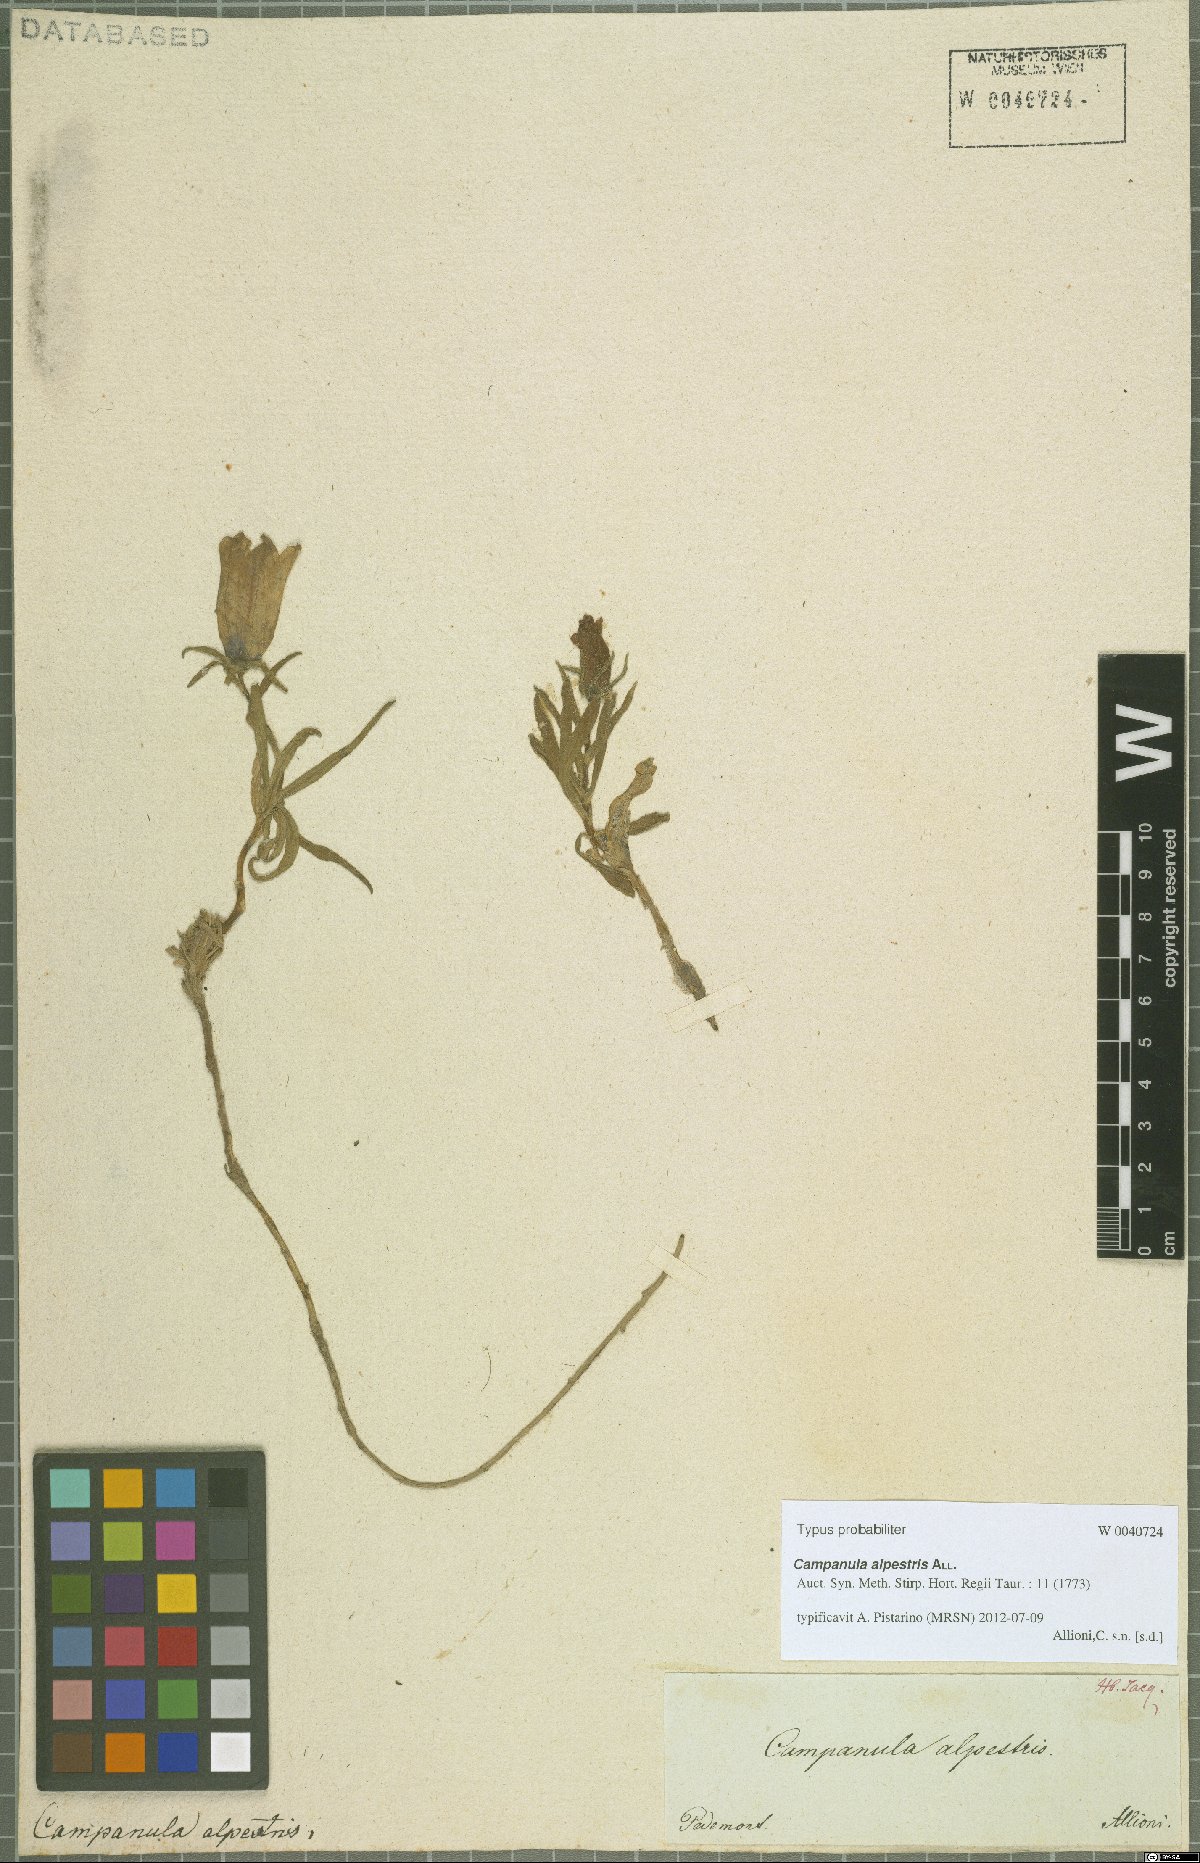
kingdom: Plantae
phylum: Tracheophyta
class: Magnoliopsida
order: Asterales
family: Campanulaceae
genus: Campanula
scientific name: Campanula alpestris
